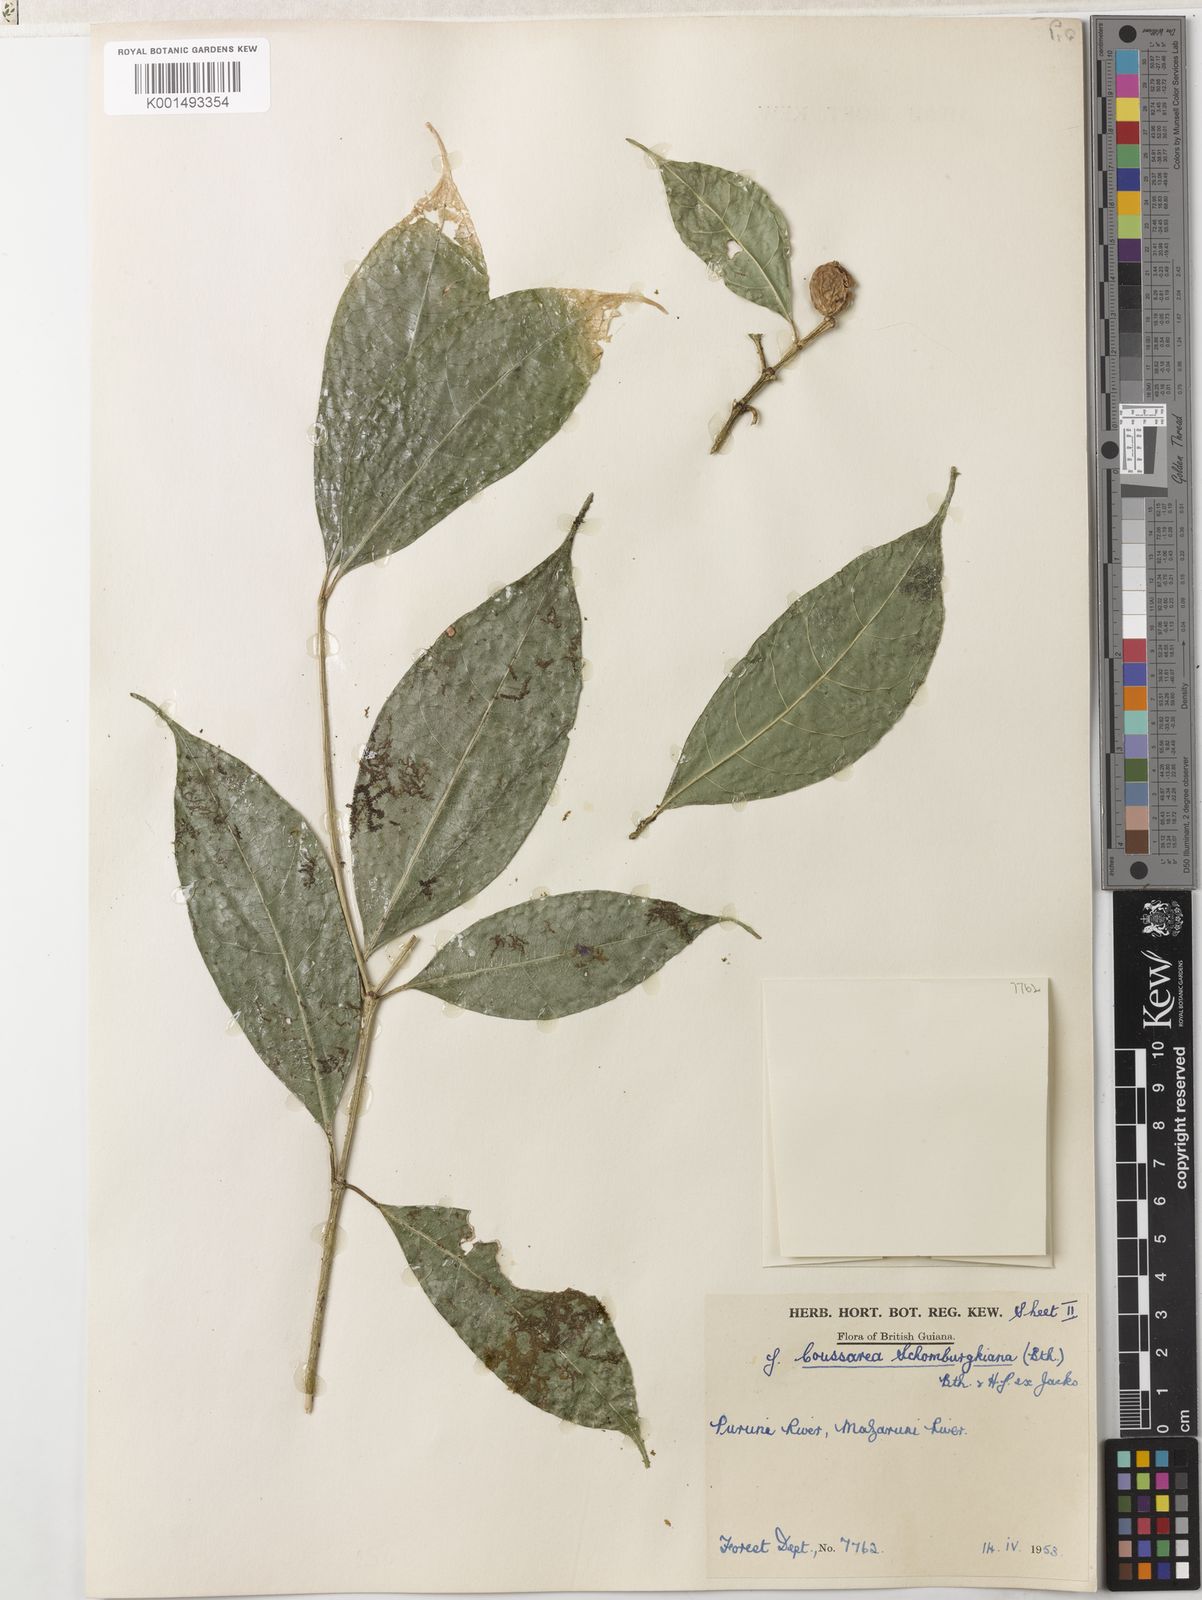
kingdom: Plantae
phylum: Tracheophyta
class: Magnoliopsida
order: Gentianales
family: Rubiaceae
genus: Coussarea
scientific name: Coussarea violacea
